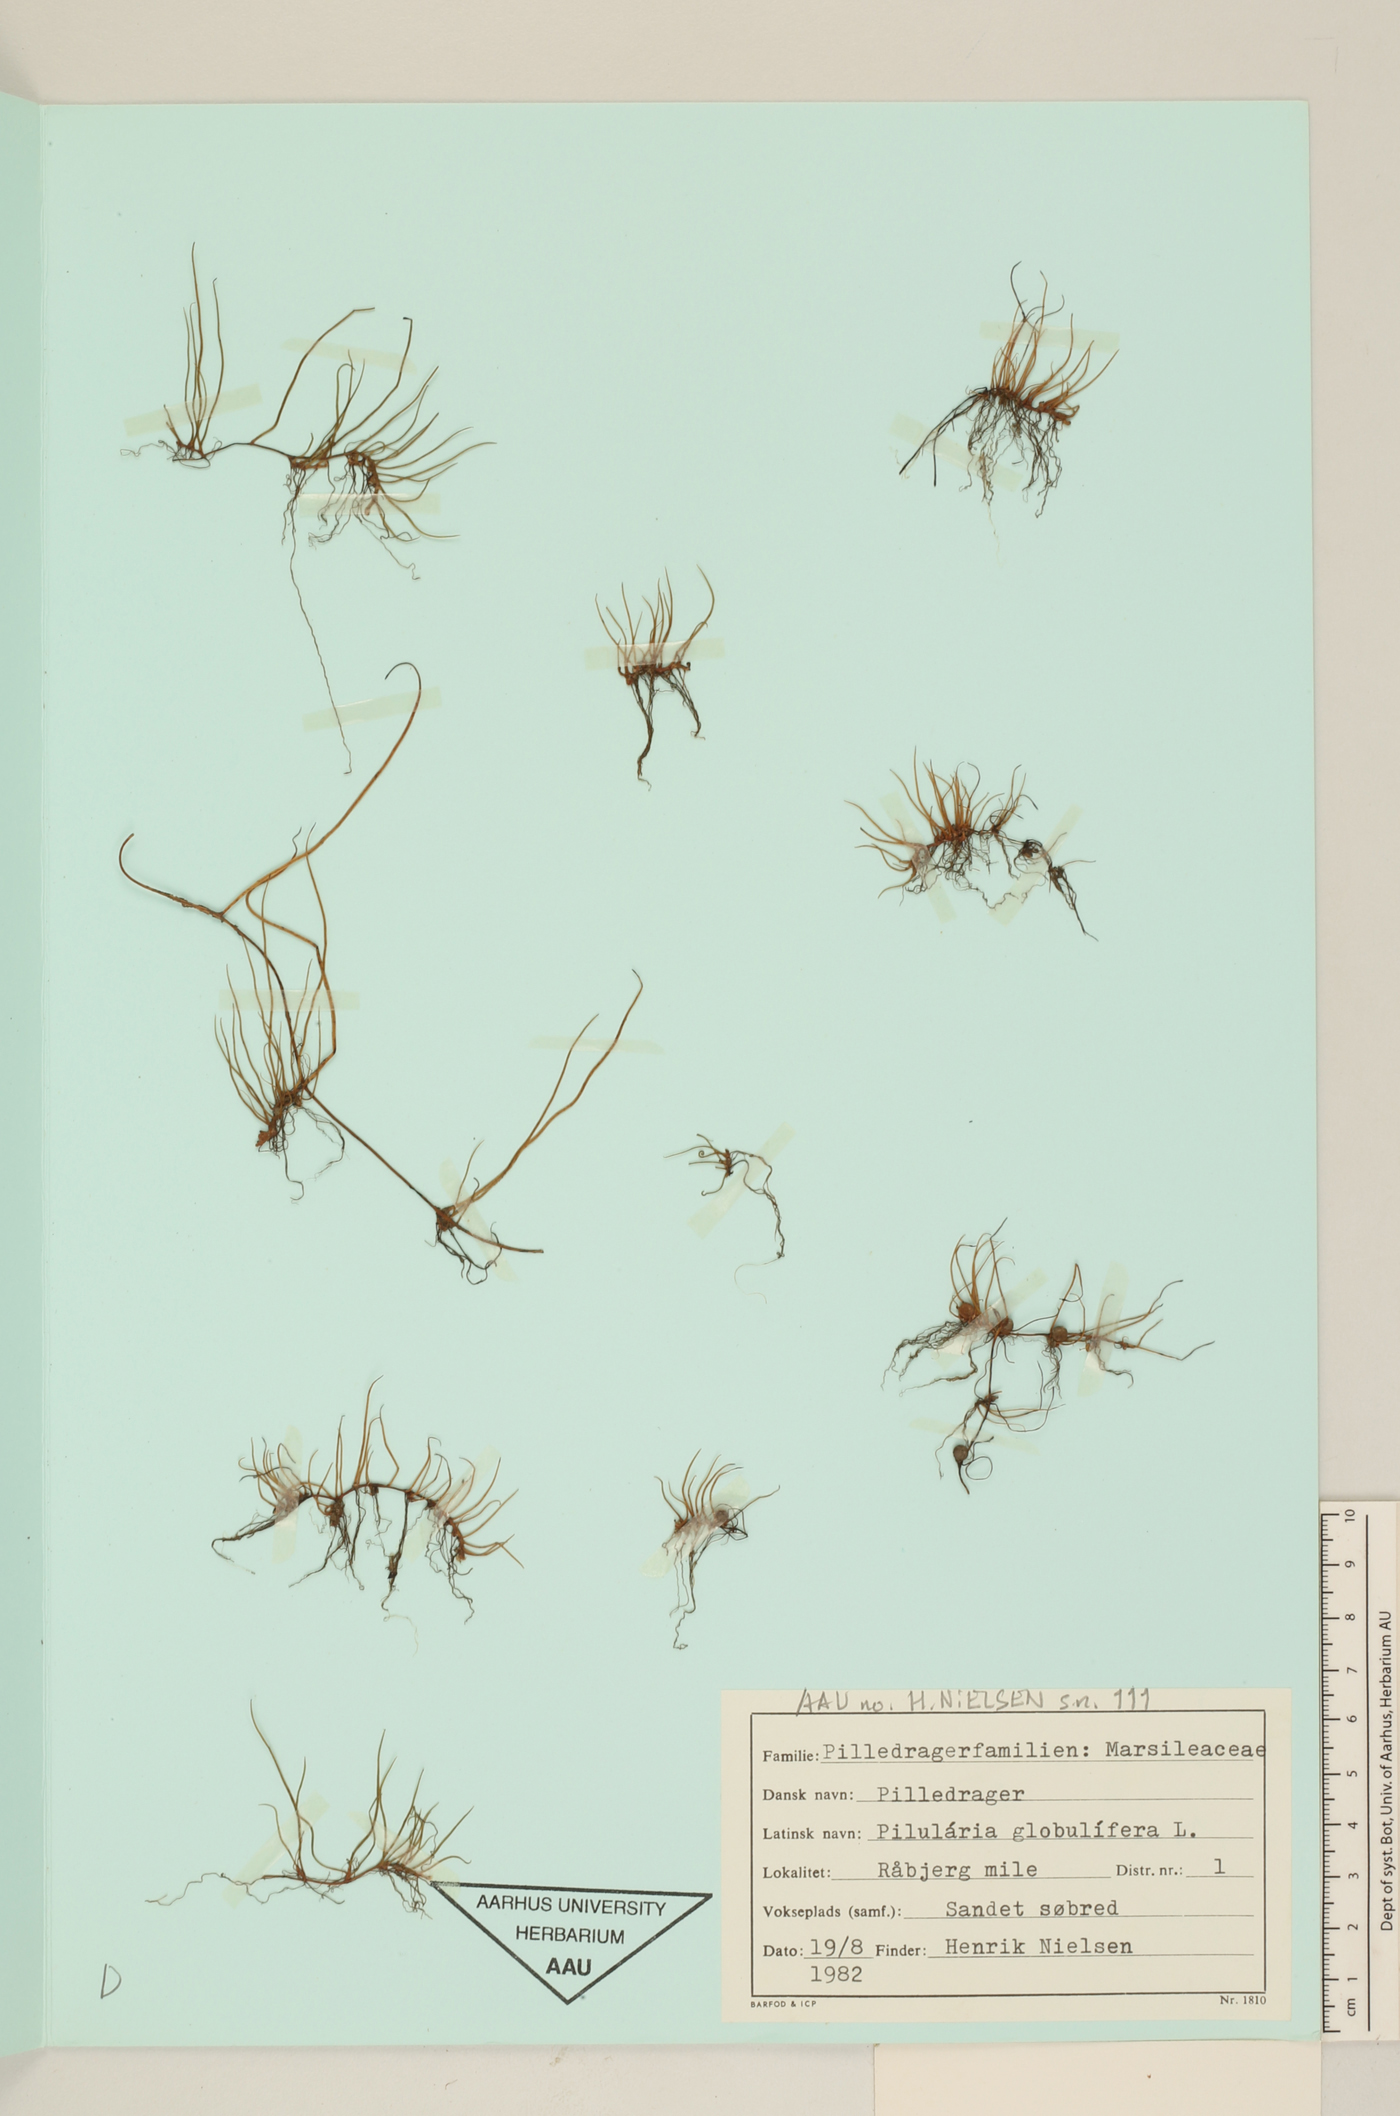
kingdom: Plantae
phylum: Tracheophyta
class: Polypodiopsida
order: Salviniales
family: Marsileaceae
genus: Pilularia
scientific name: Pilularia globulifera
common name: Pillwort
